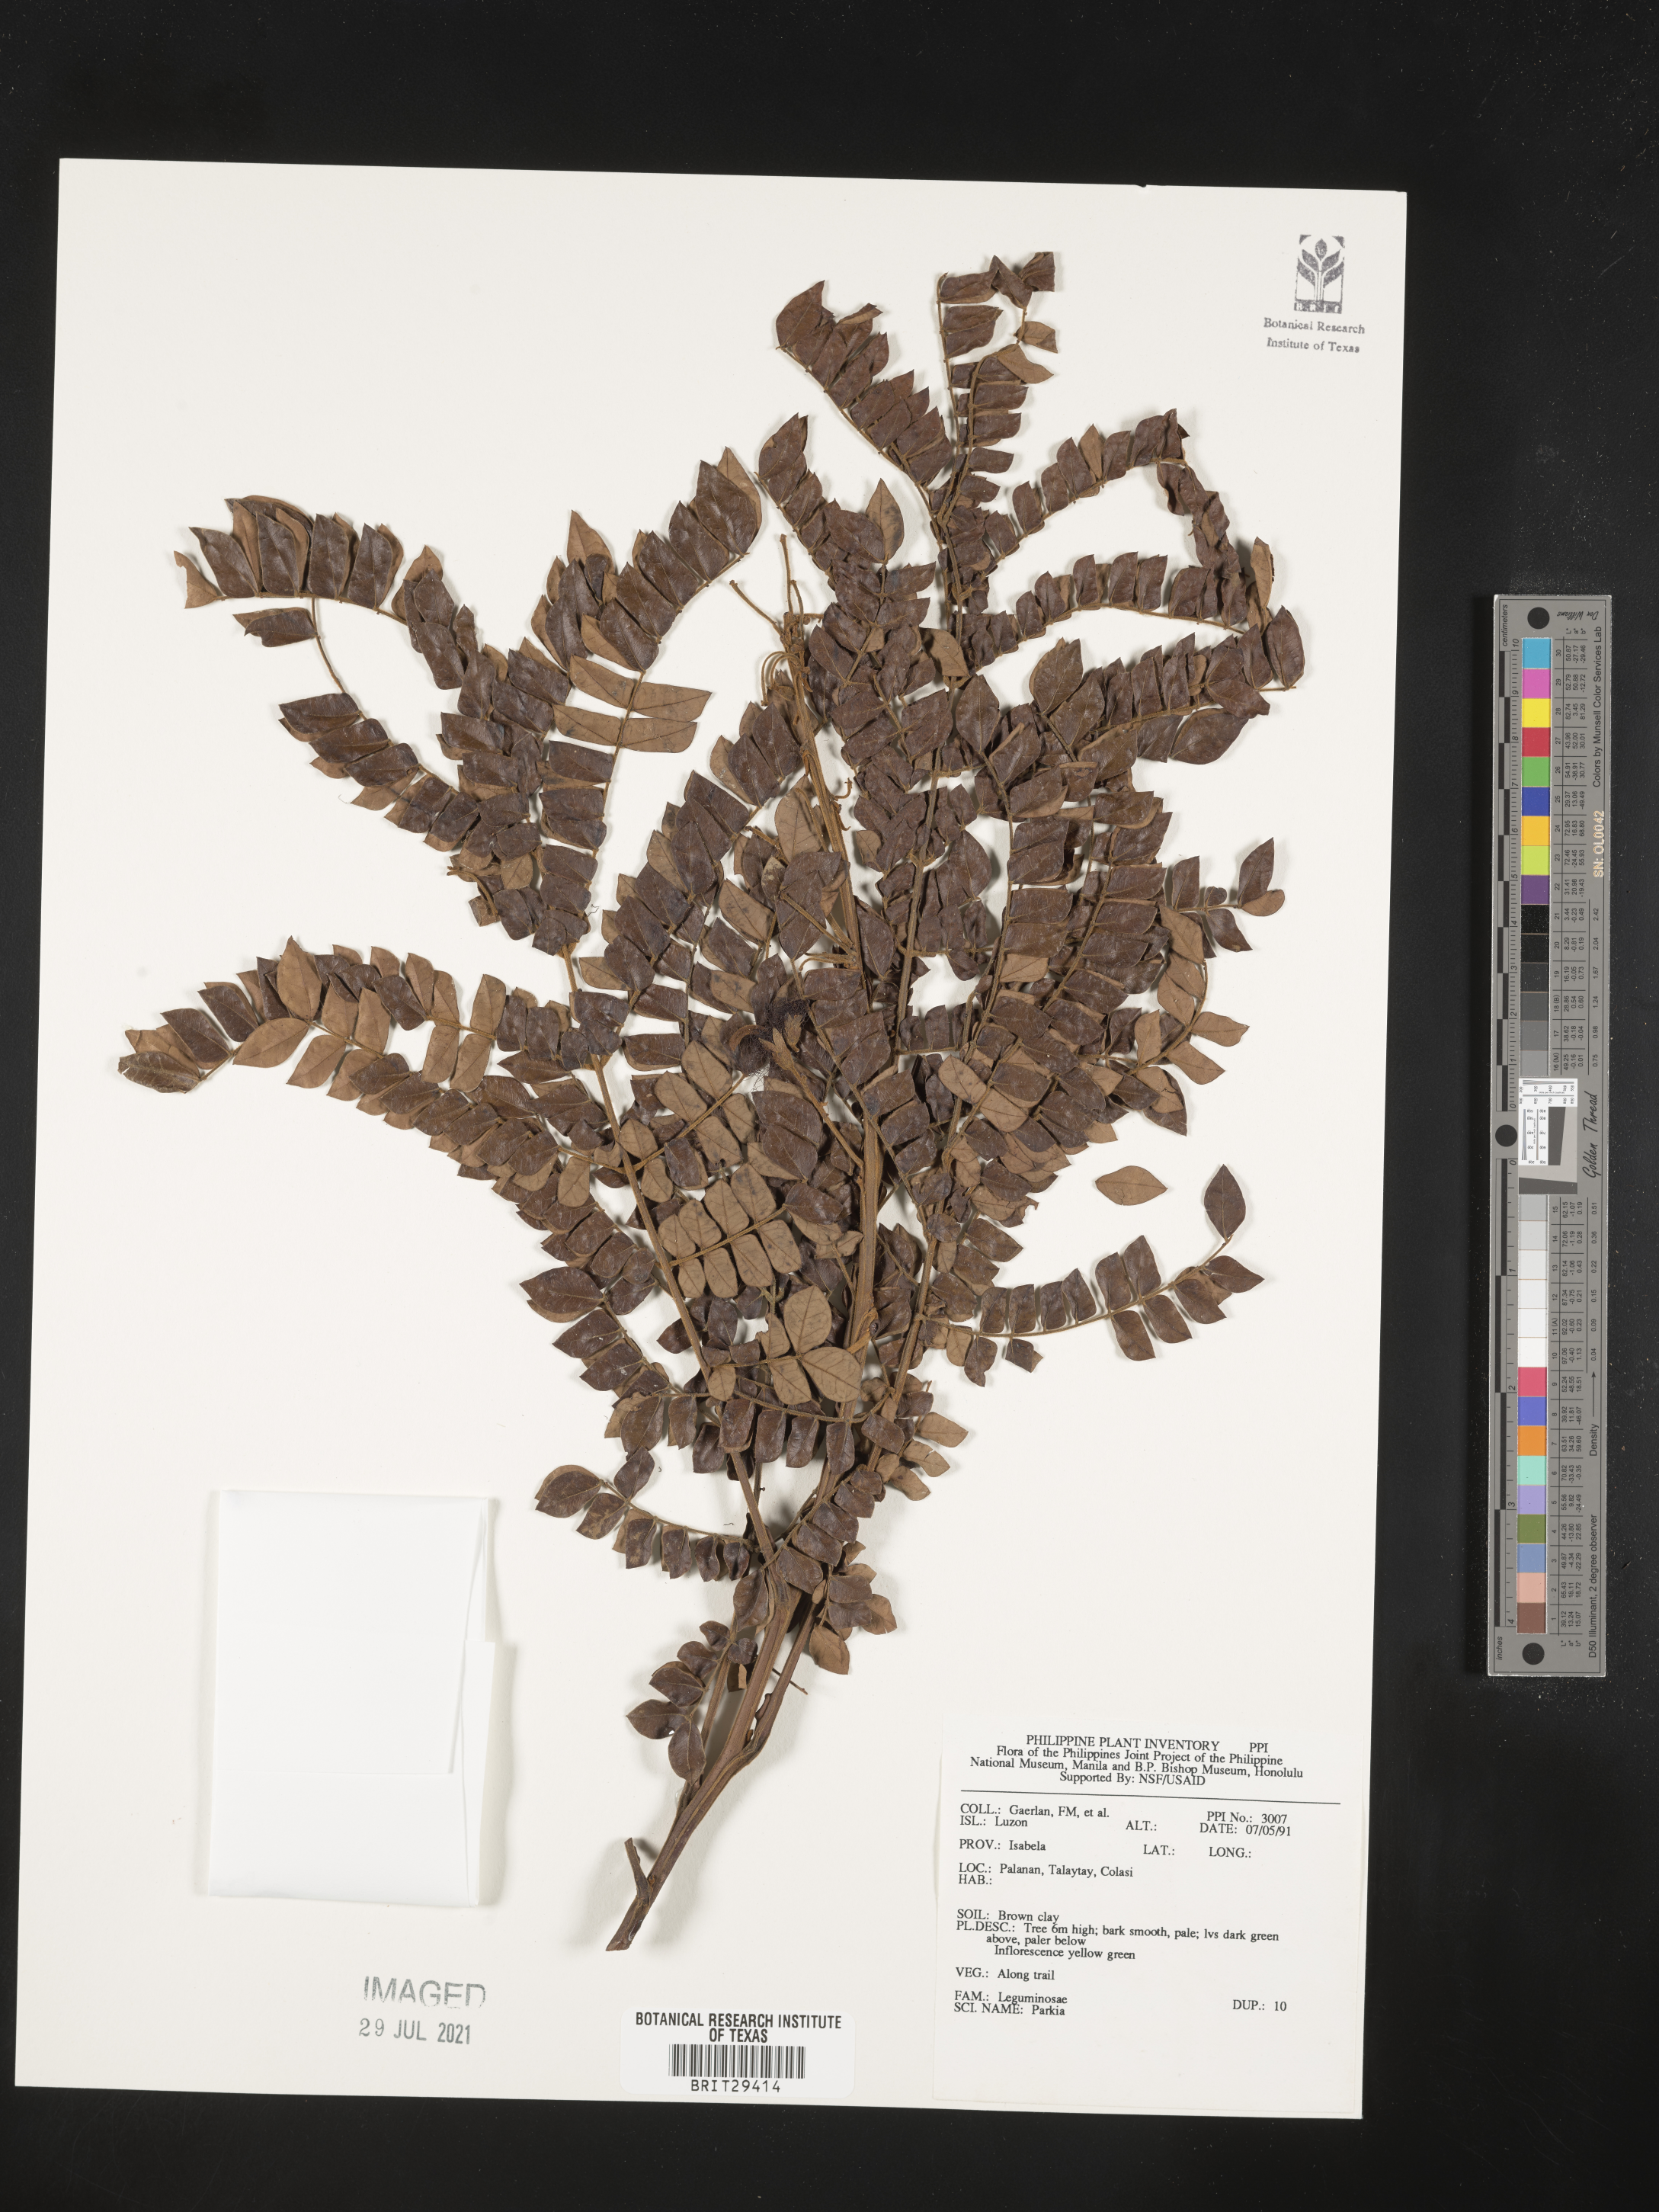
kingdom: Plantae
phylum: Tracheophyta
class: Magnoliopsida
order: Fabales
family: Fabaceae
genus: Parkia
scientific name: Parkia
